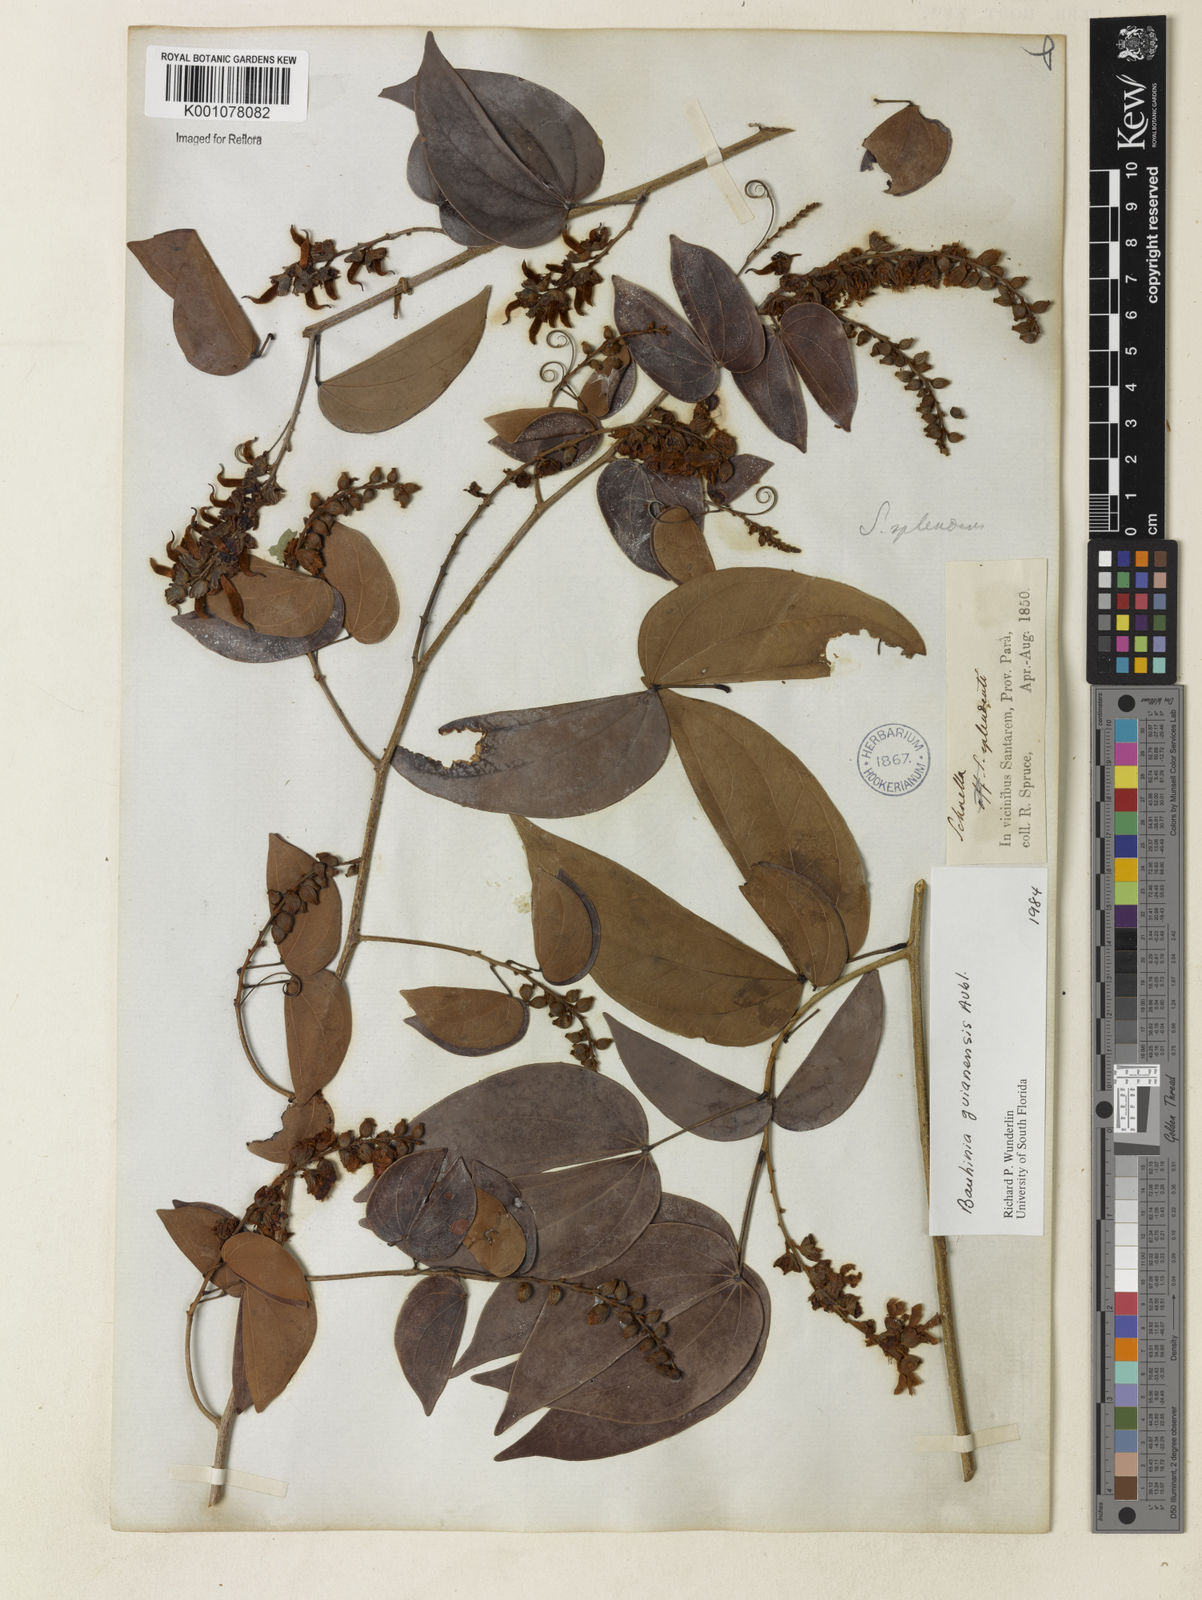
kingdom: Plantae
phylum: Tracheophyta
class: Magnoliopsida
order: Fabales
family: Fabaceae
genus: Schnella
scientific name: Schnella guianensis
